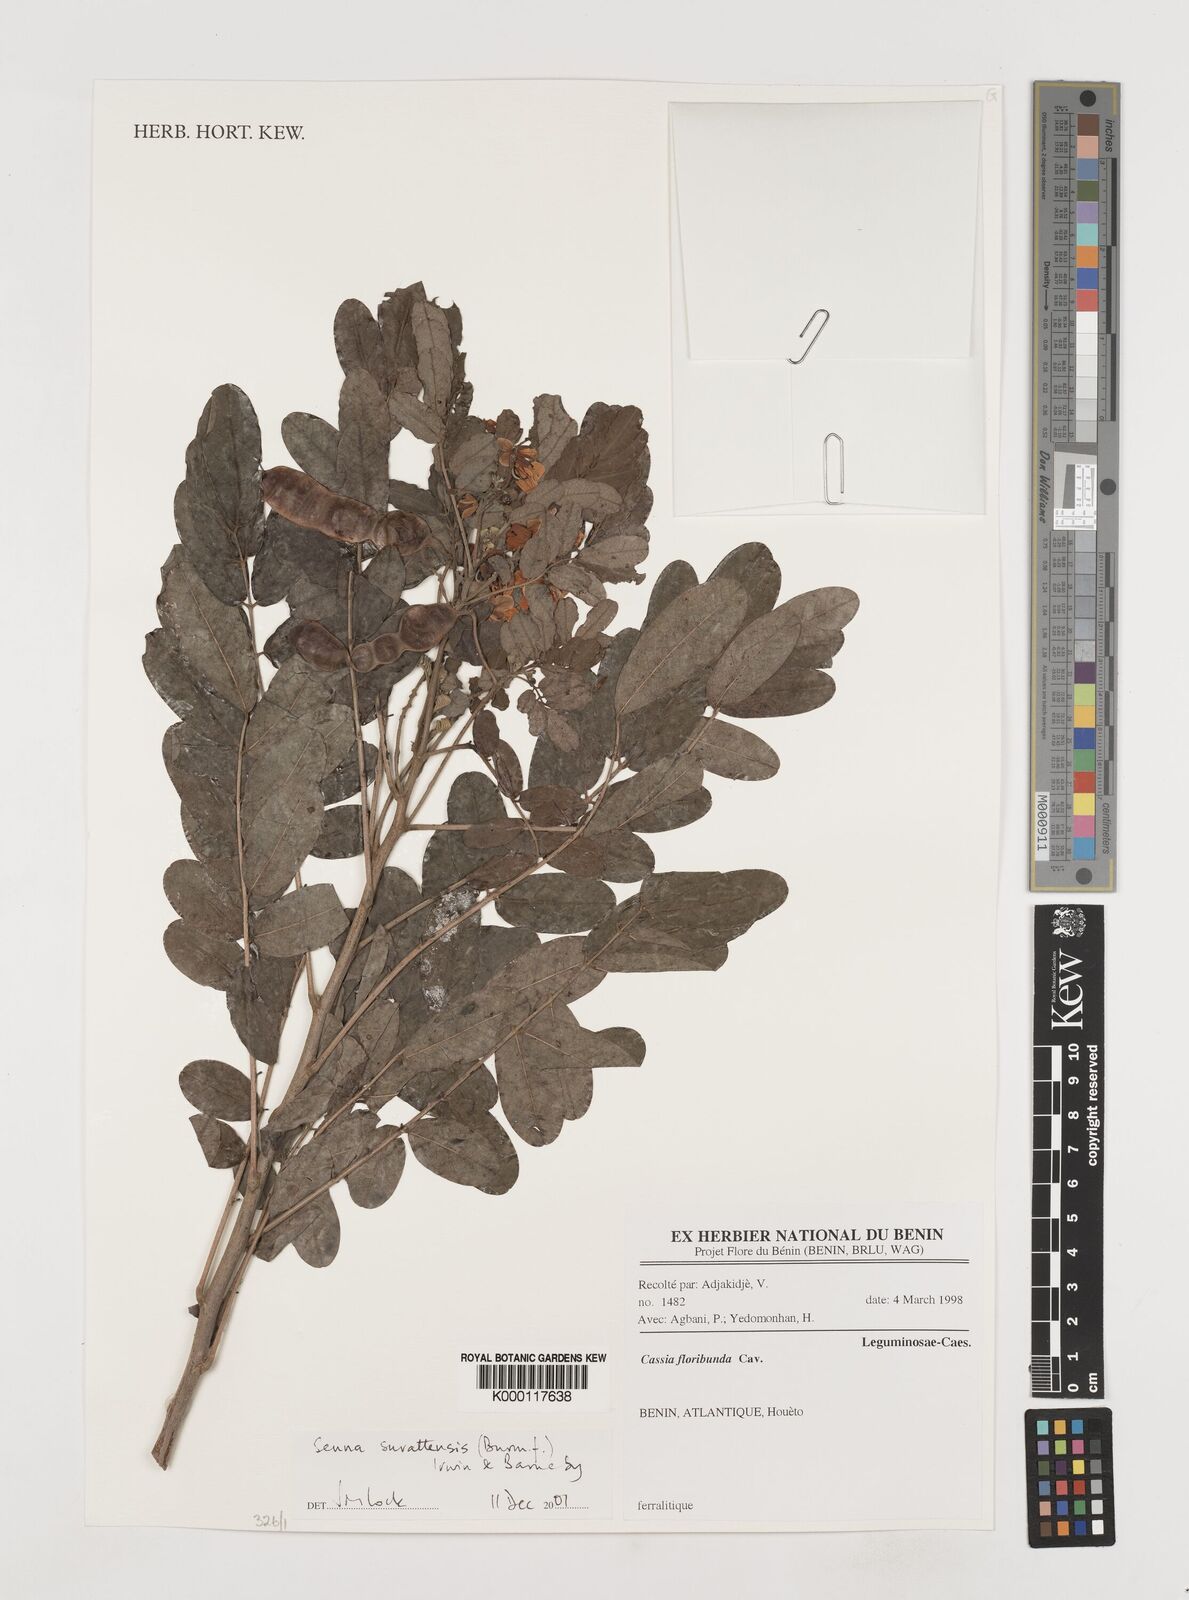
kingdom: Plantae
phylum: Tracheophyta
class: Magnoliopsida
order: Fabales
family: Fabaceae
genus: Senna
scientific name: Senna surattensis
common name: Glossy shower
